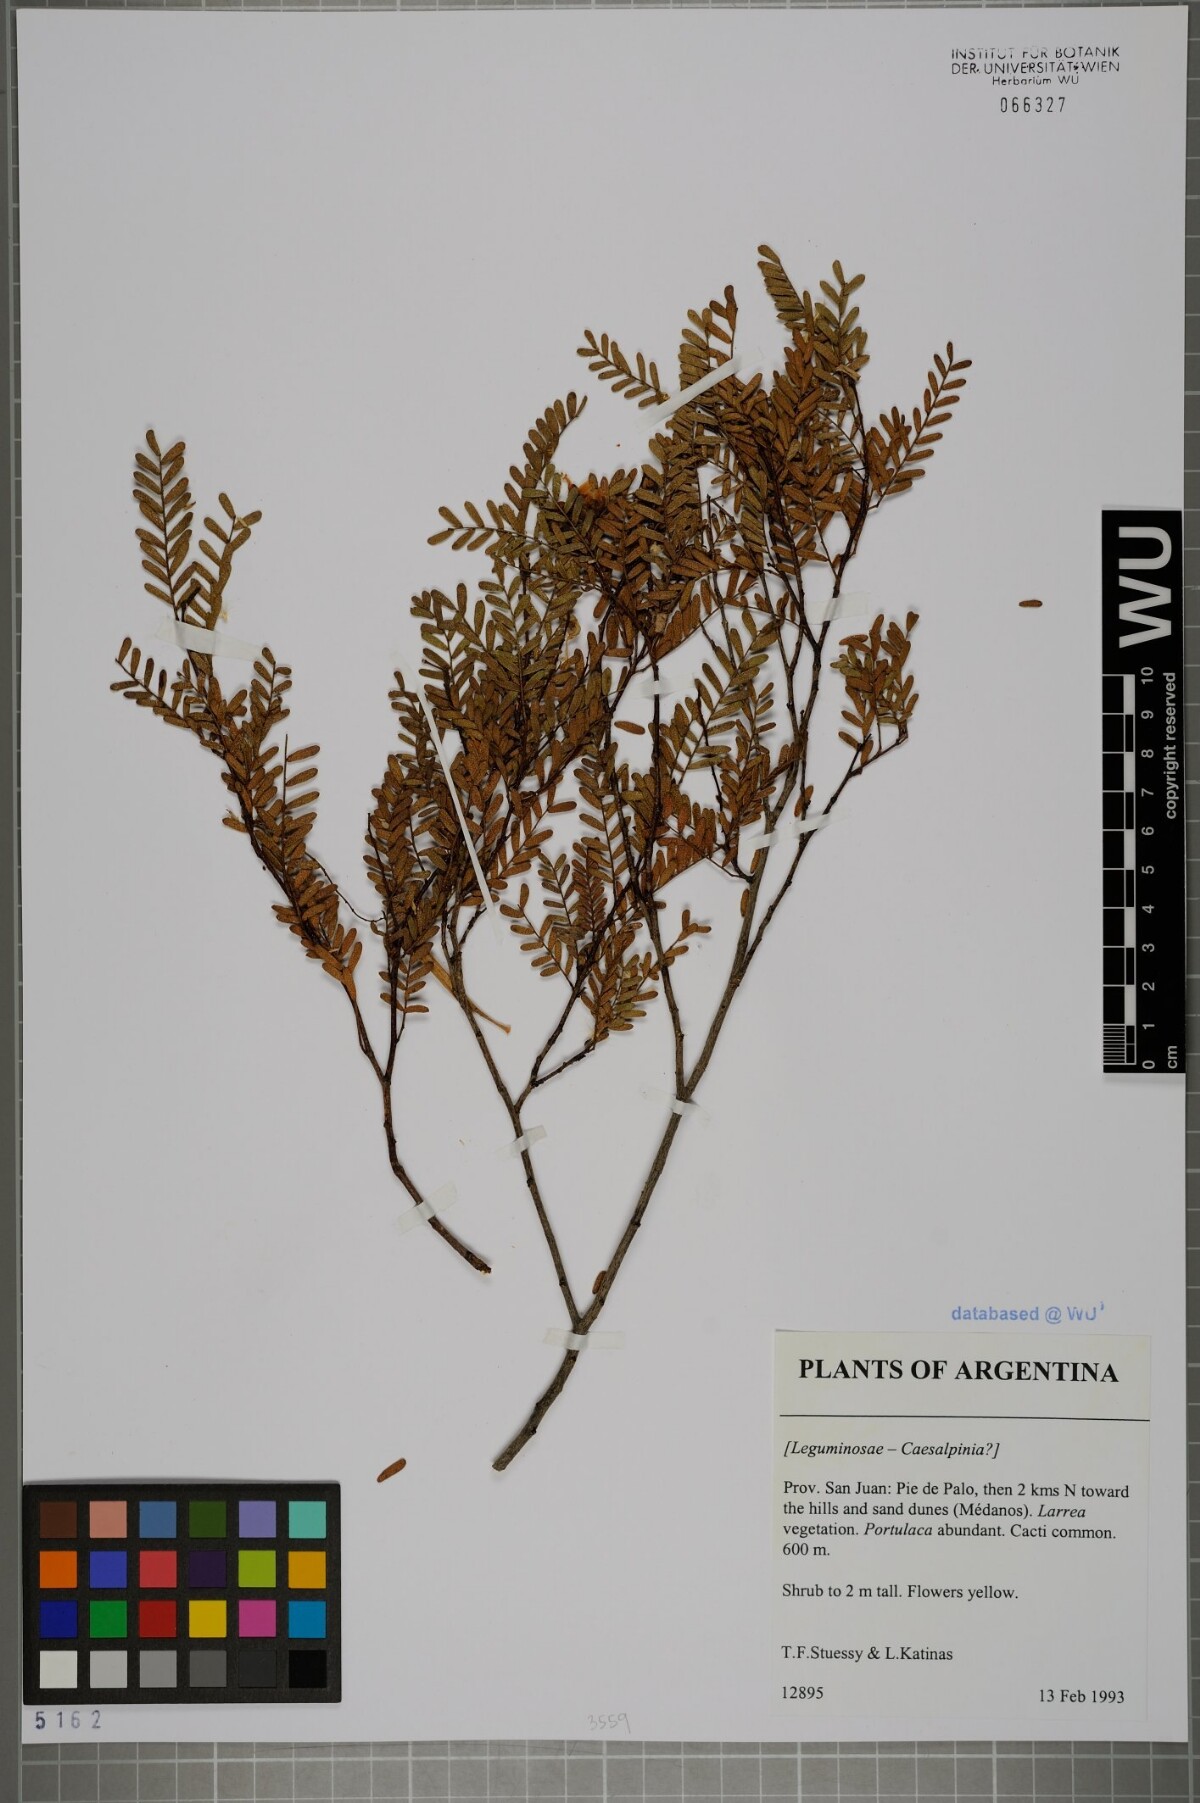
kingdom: Plantae
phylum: Tracheophyta
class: Magnoliopsida
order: Fabales
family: Fabaceae
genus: Caesalpinia
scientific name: Caesalpinia
